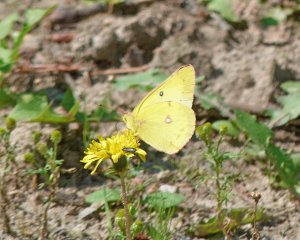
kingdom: Animalia
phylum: Arthropoda
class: Insecta
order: Lepidoptera
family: Pieridae
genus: Colias
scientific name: Colias philodice
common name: Clouded Sulphur
